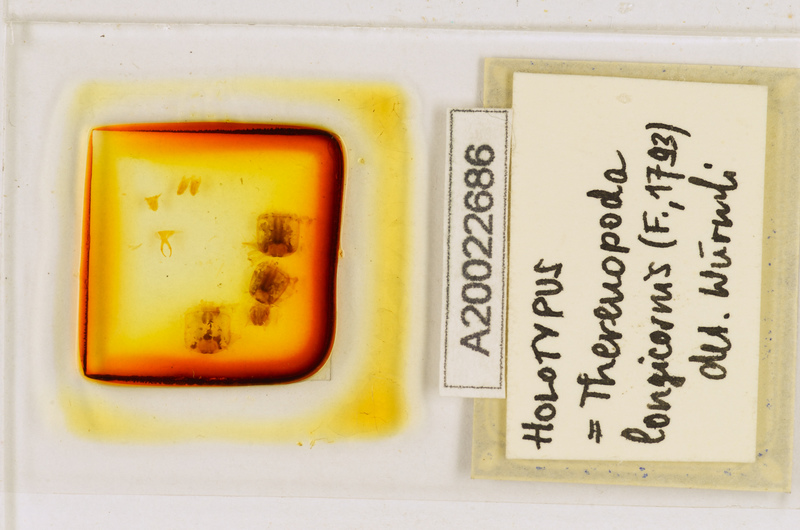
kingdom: Animalia
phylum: Arthropoda
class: Chilopoda
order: Scutigeromorpha
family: Scutigeridae
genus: Thereuopoda
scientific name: Thereuopoda longicornis
